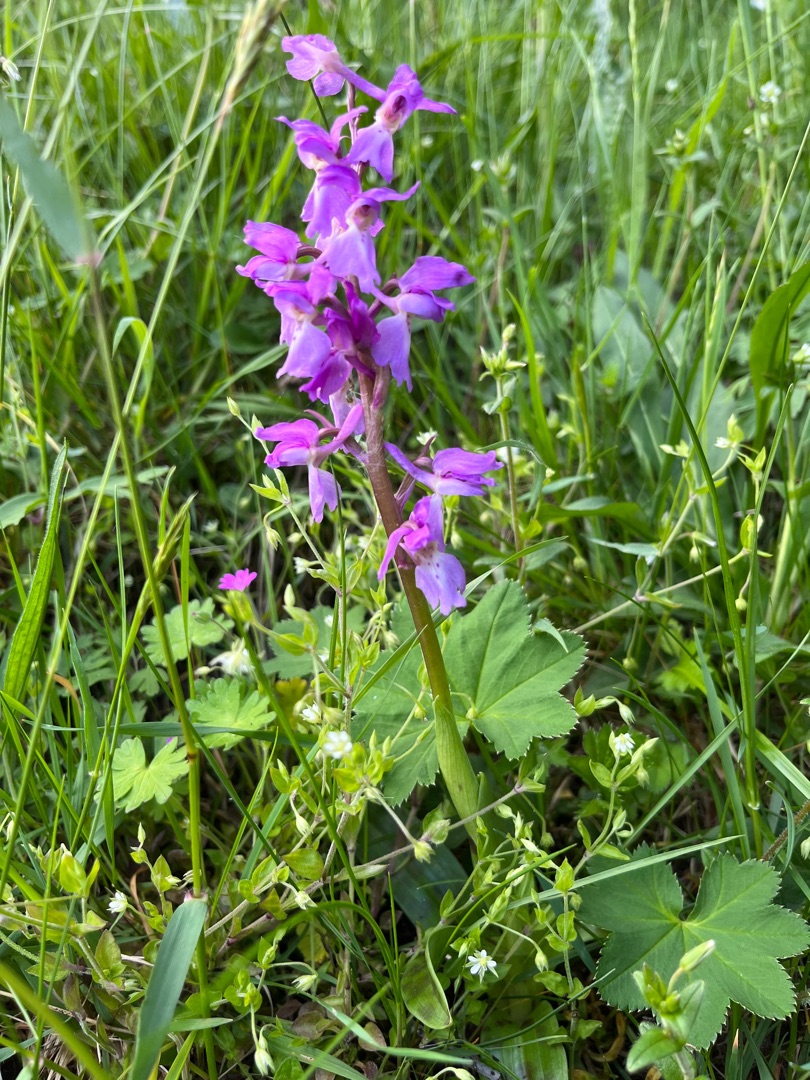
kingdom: Plantae
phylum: Tracheophyta
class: Liliopsida
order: Asparagales
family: Orchidaceae
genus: Orchis
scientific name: Orchis mascula
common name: Tyndakset gøgeurt
